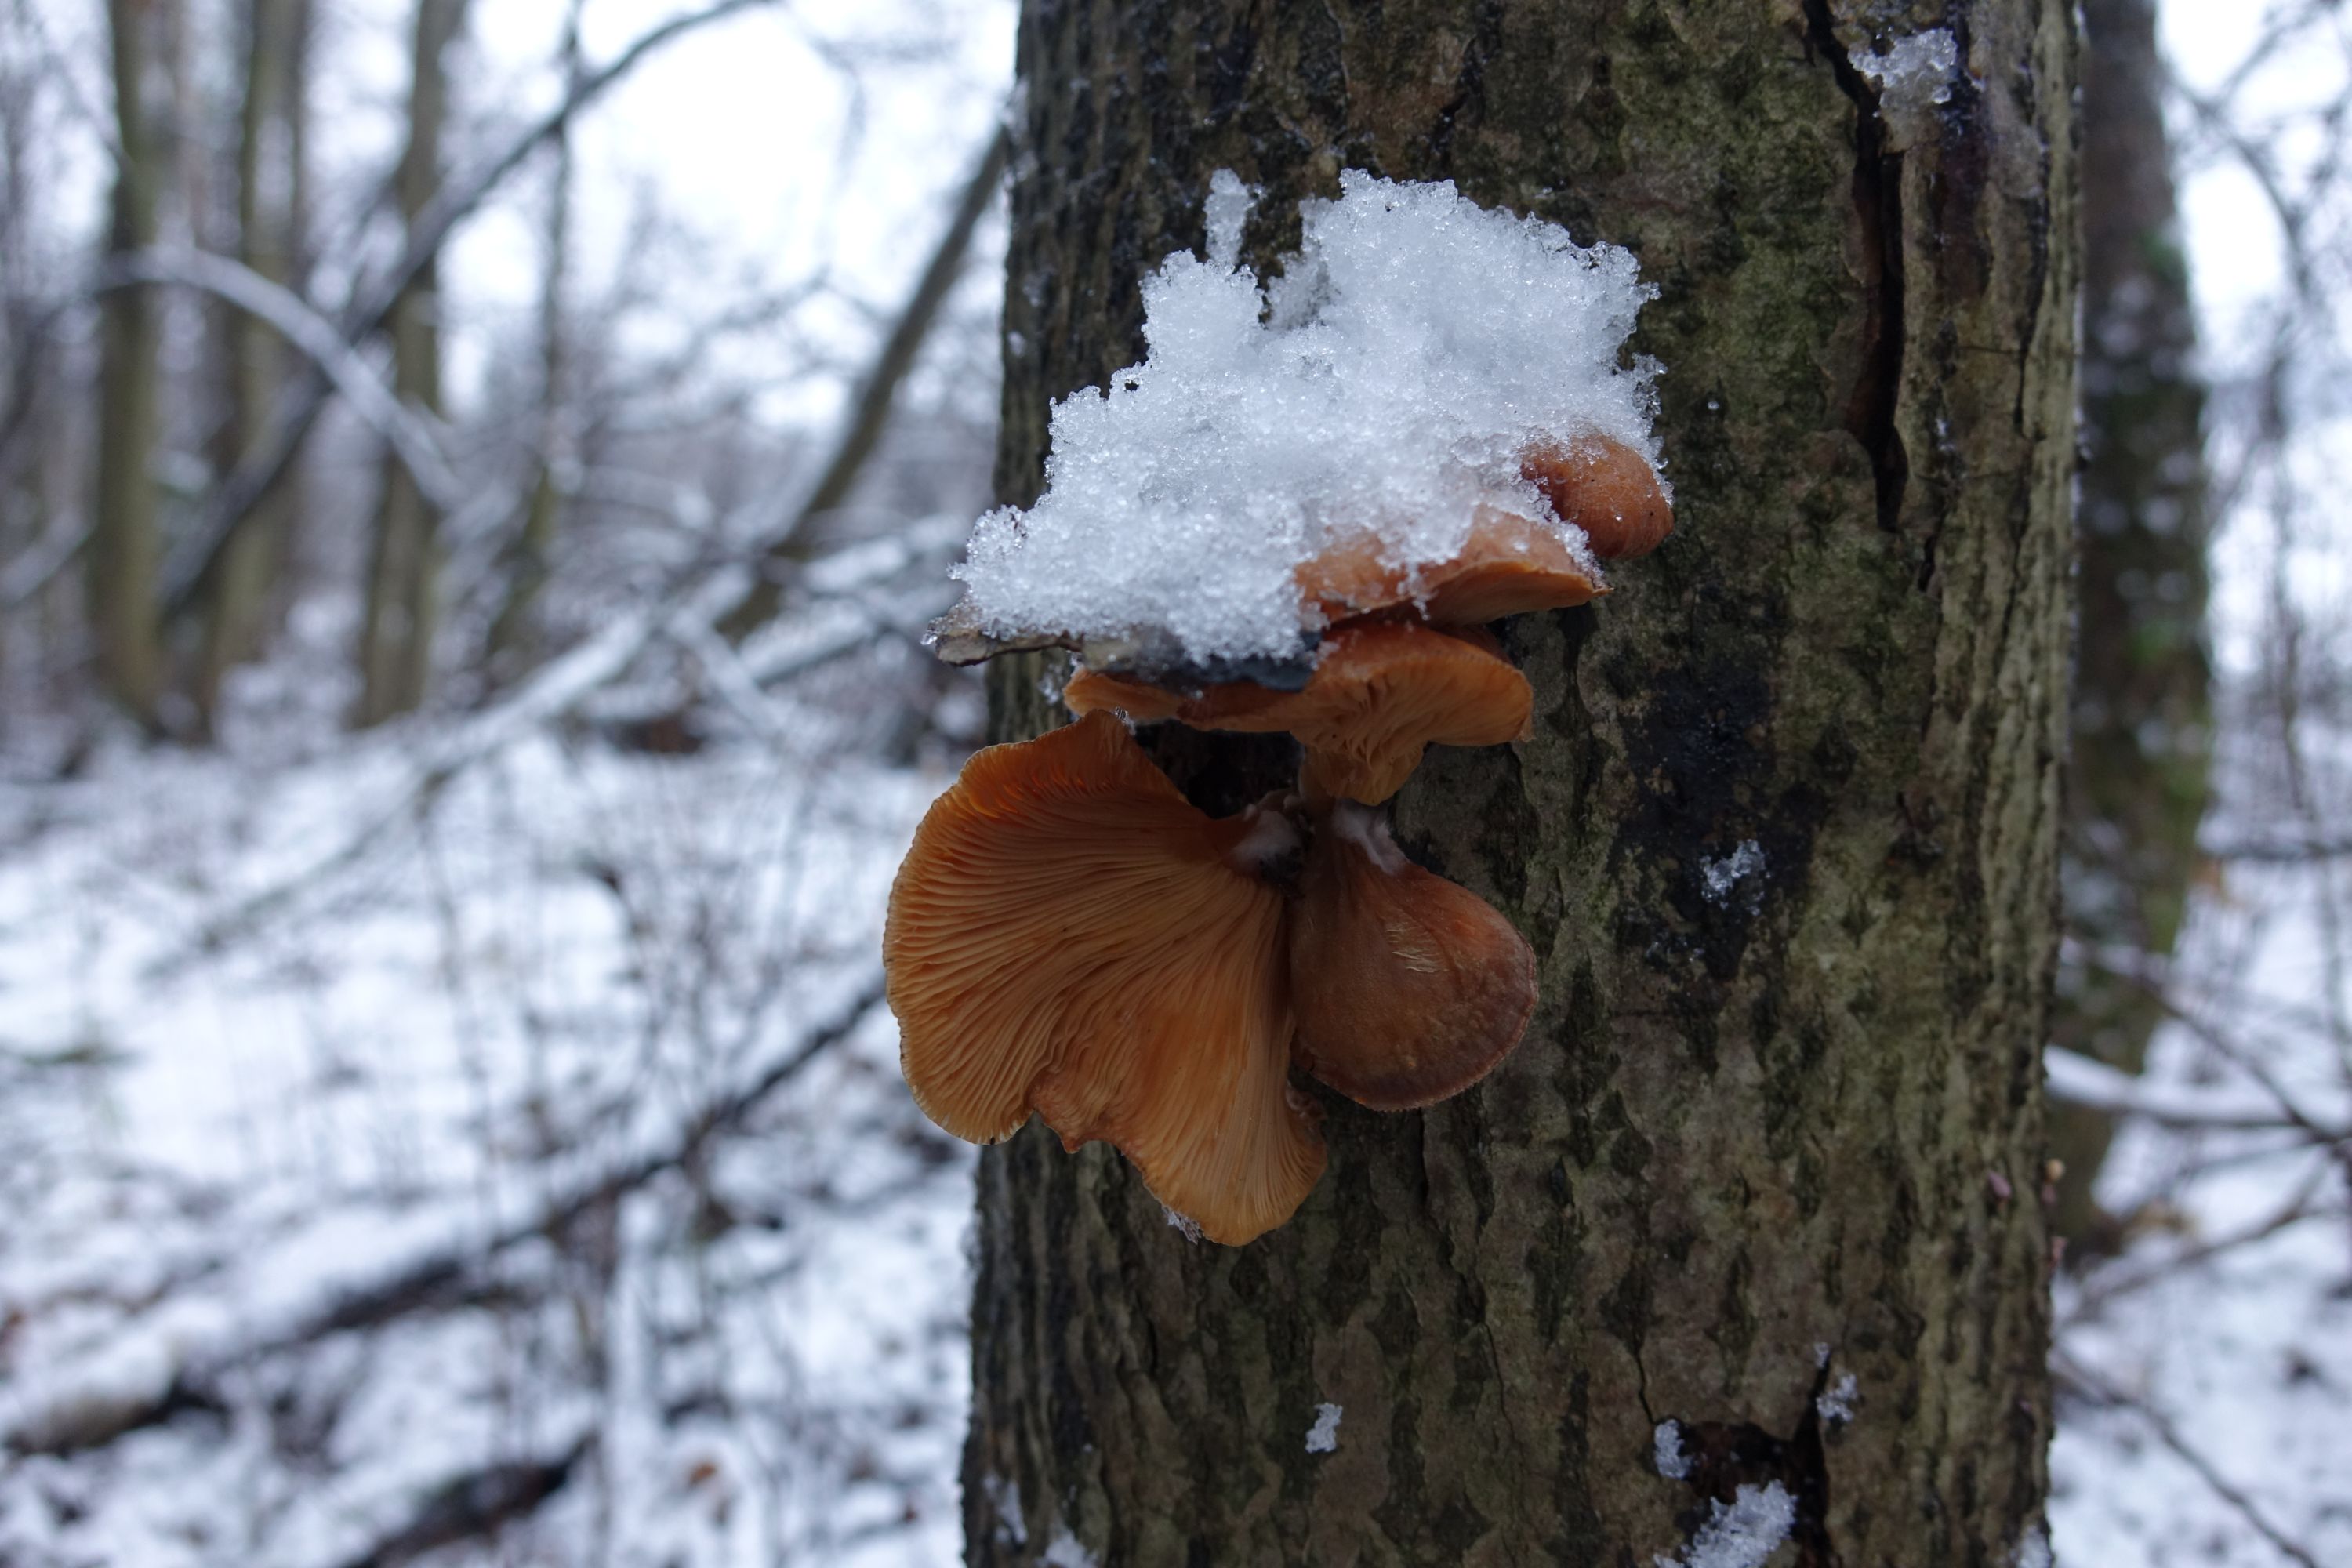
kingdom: Fungi
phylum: Basidiomycota
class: Agaricomycetes
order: Agaricales
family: Sarcomyxaceae
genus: Sarcomyxa
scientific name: Sarcomyxa serotina
